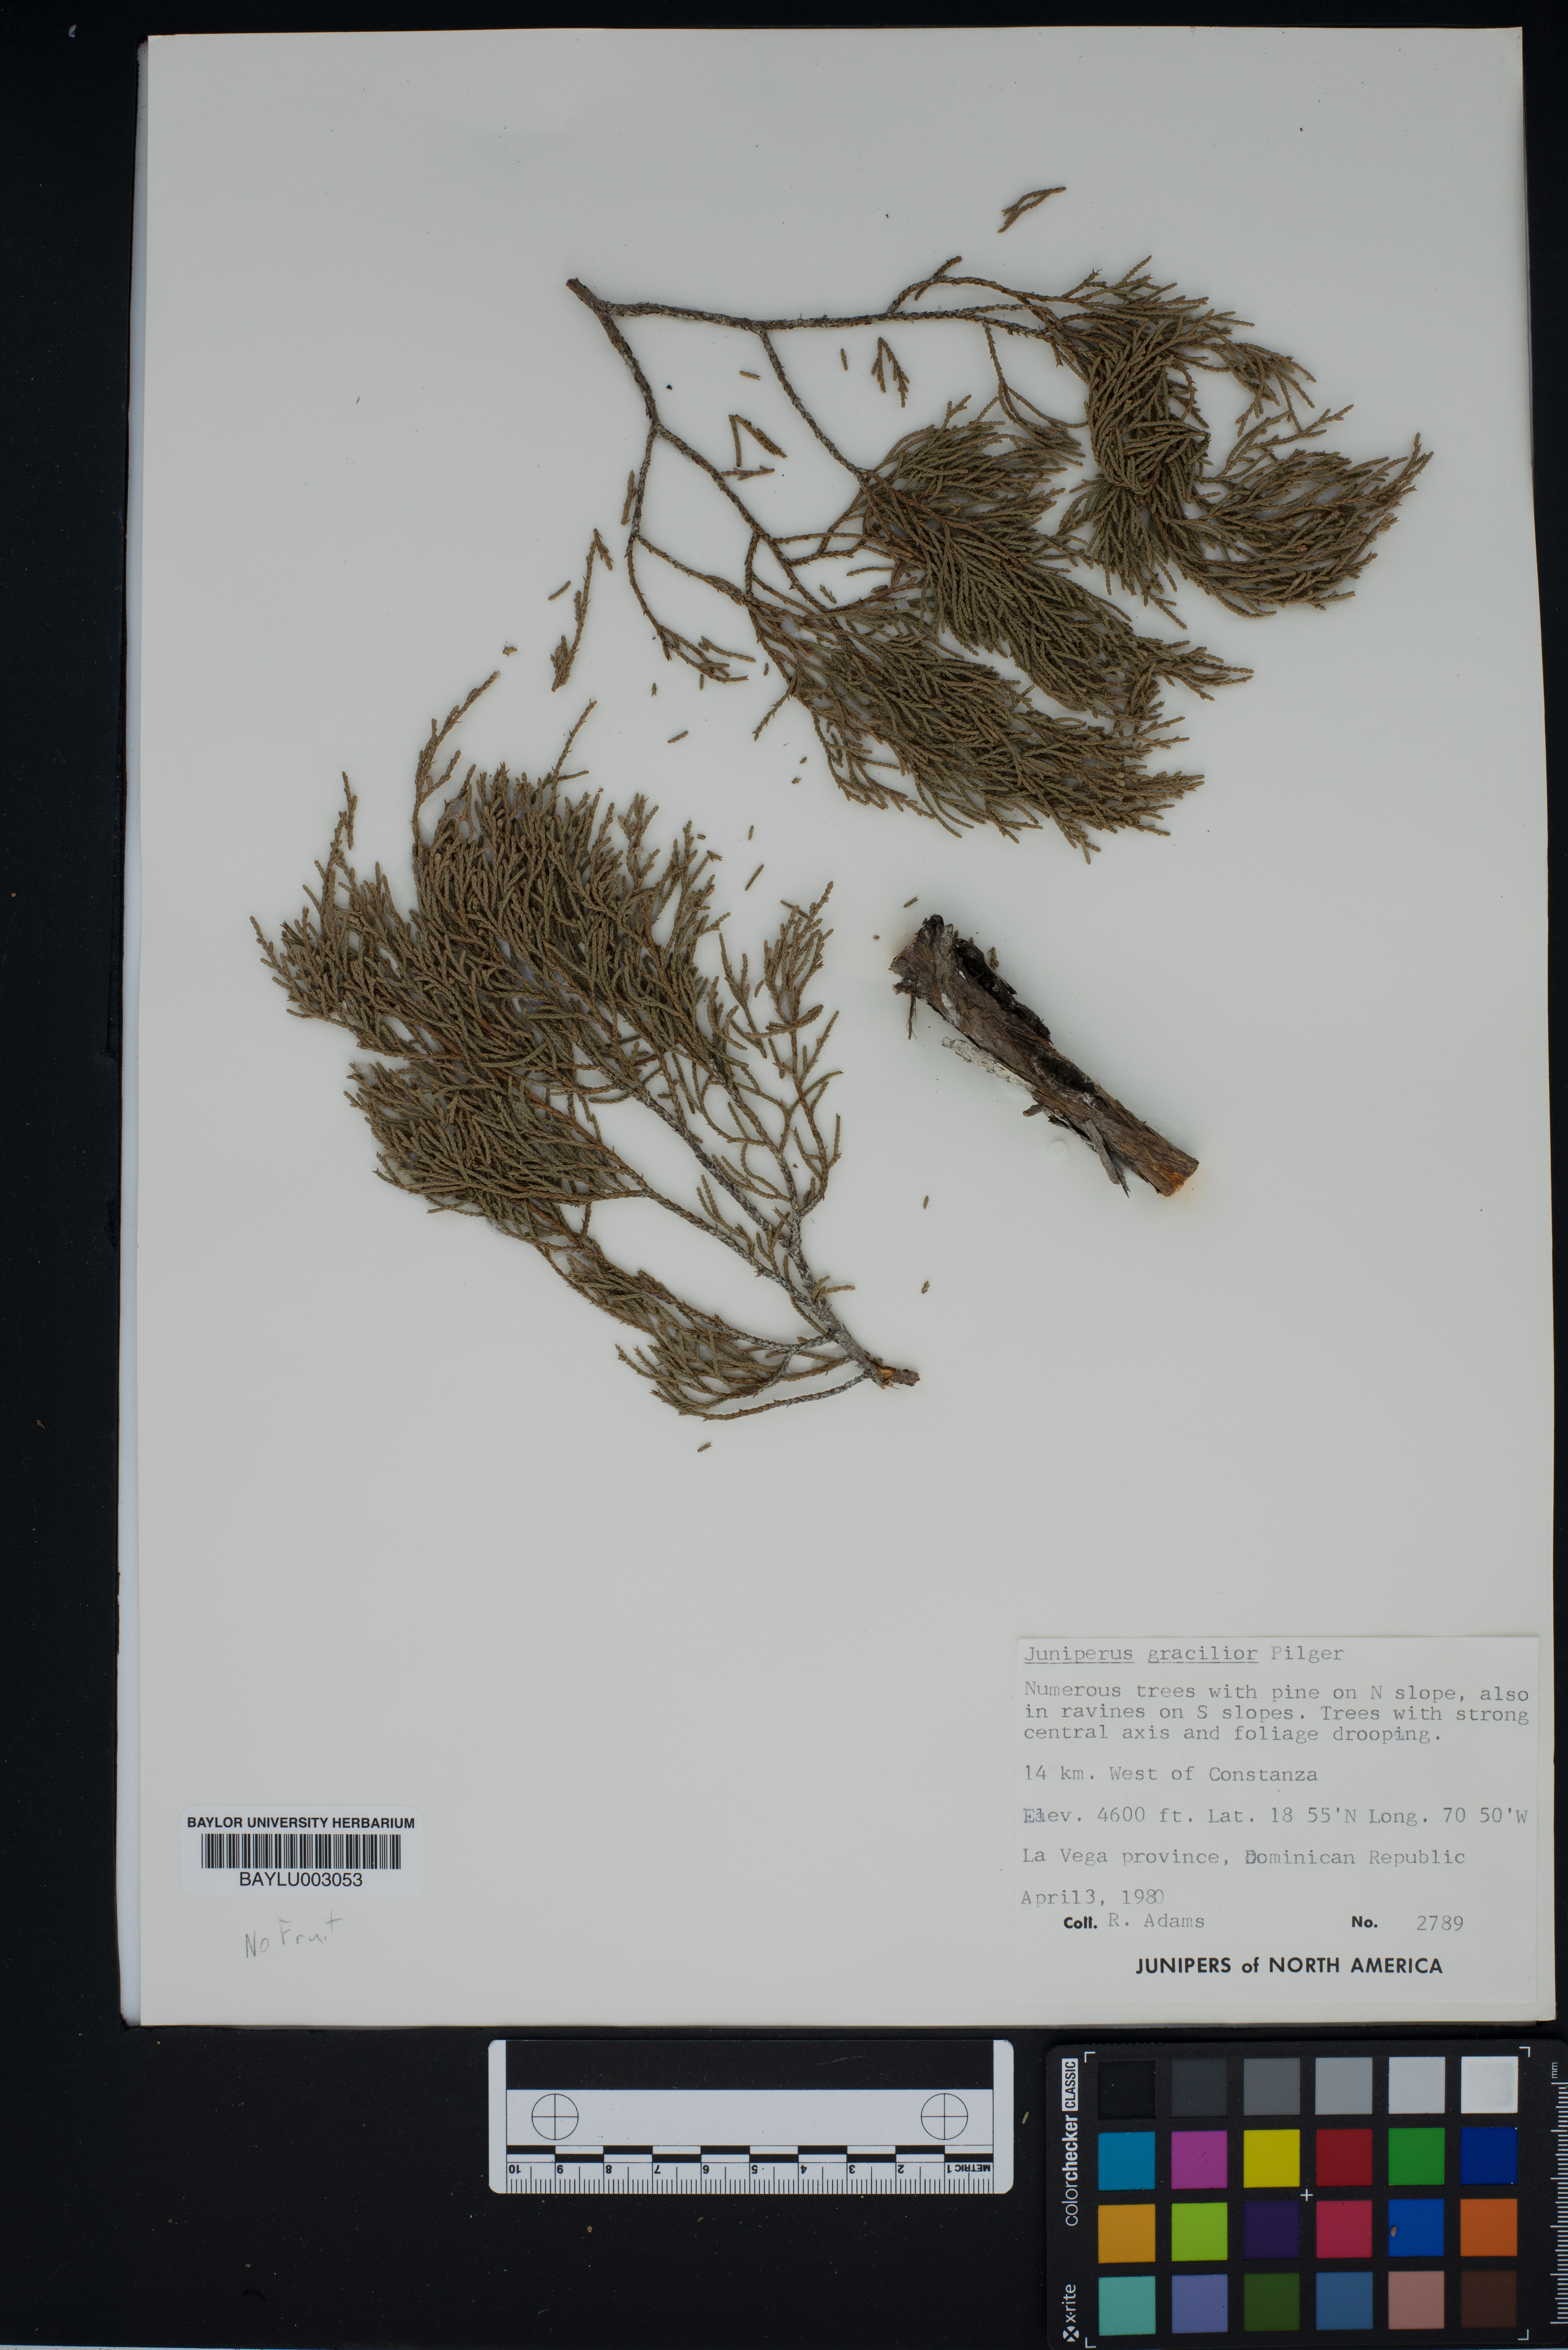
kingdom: Plantae
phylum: Tracheophyta
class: Pinopsida
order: Pinales
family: Cupressaceae
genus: Juniperus
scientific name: Juniperus gracilior
